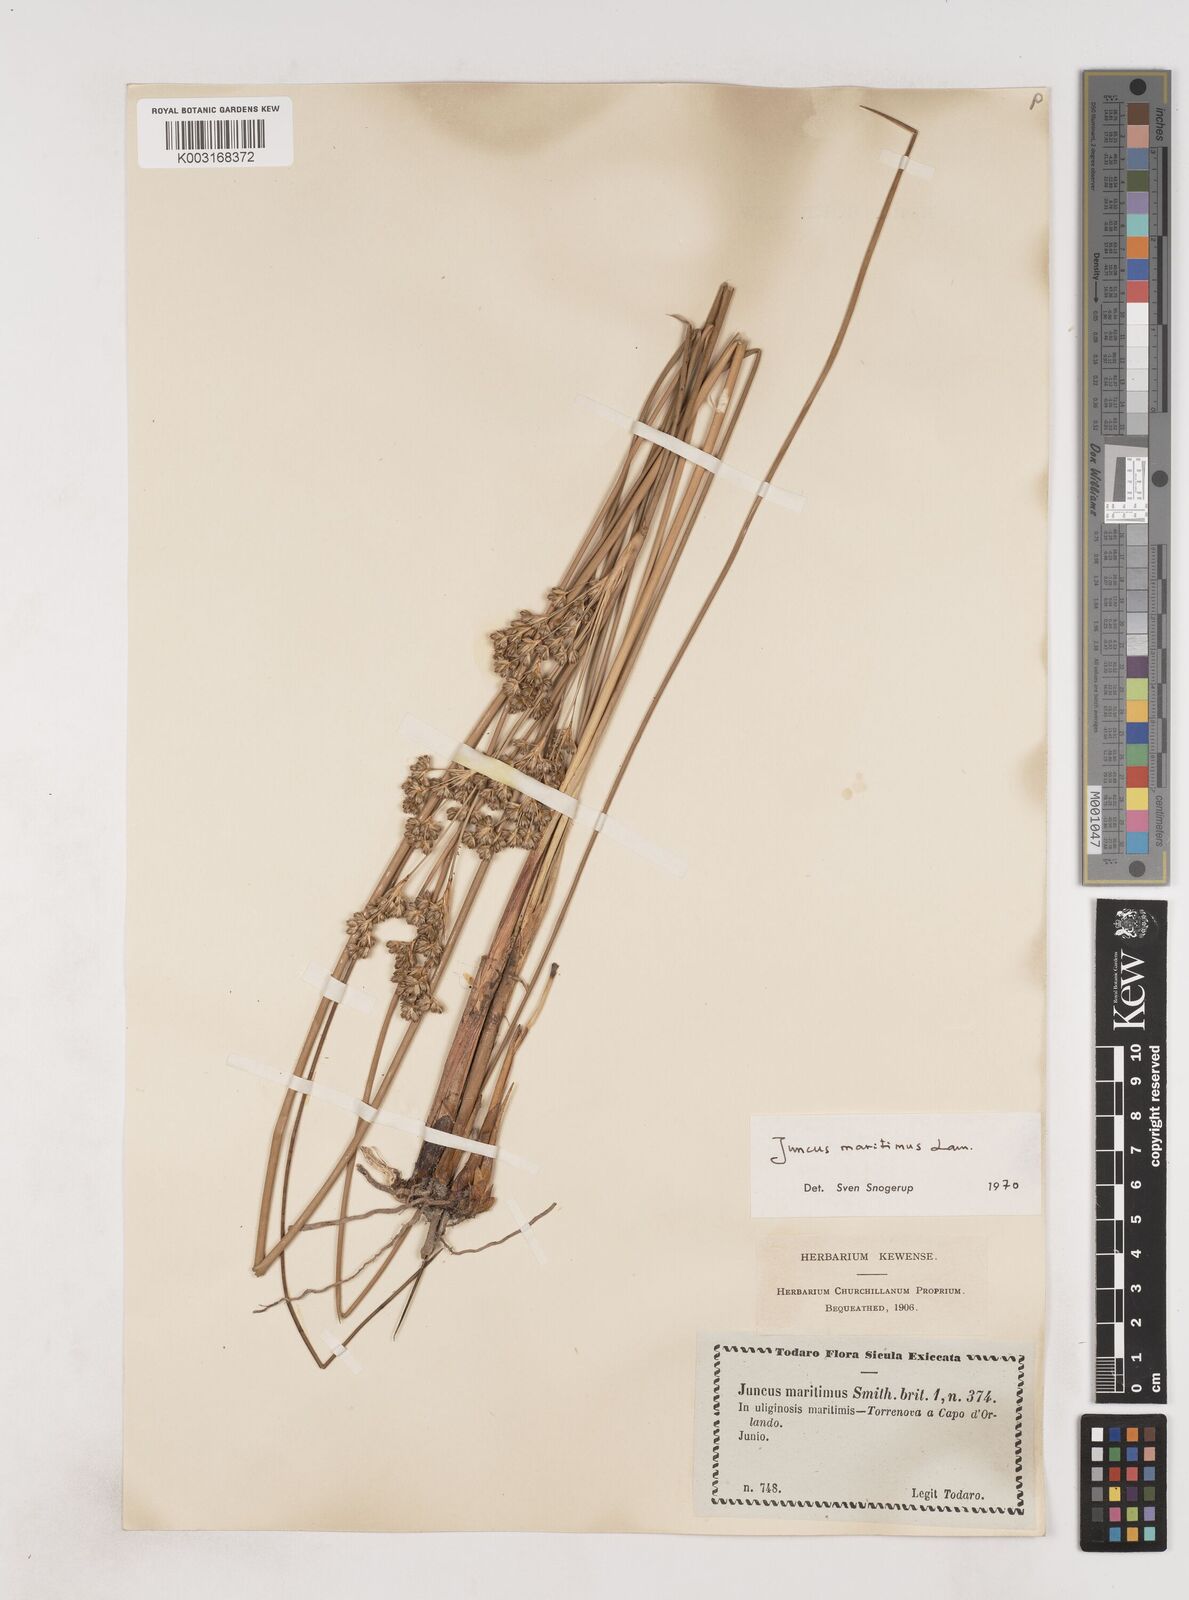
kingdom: Plantae
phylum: Tracheophyta
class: Liliopsida
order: Poales
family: Juncaceae
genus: Luzula
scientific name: Luzula sylvatica
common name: Great wood-rush
